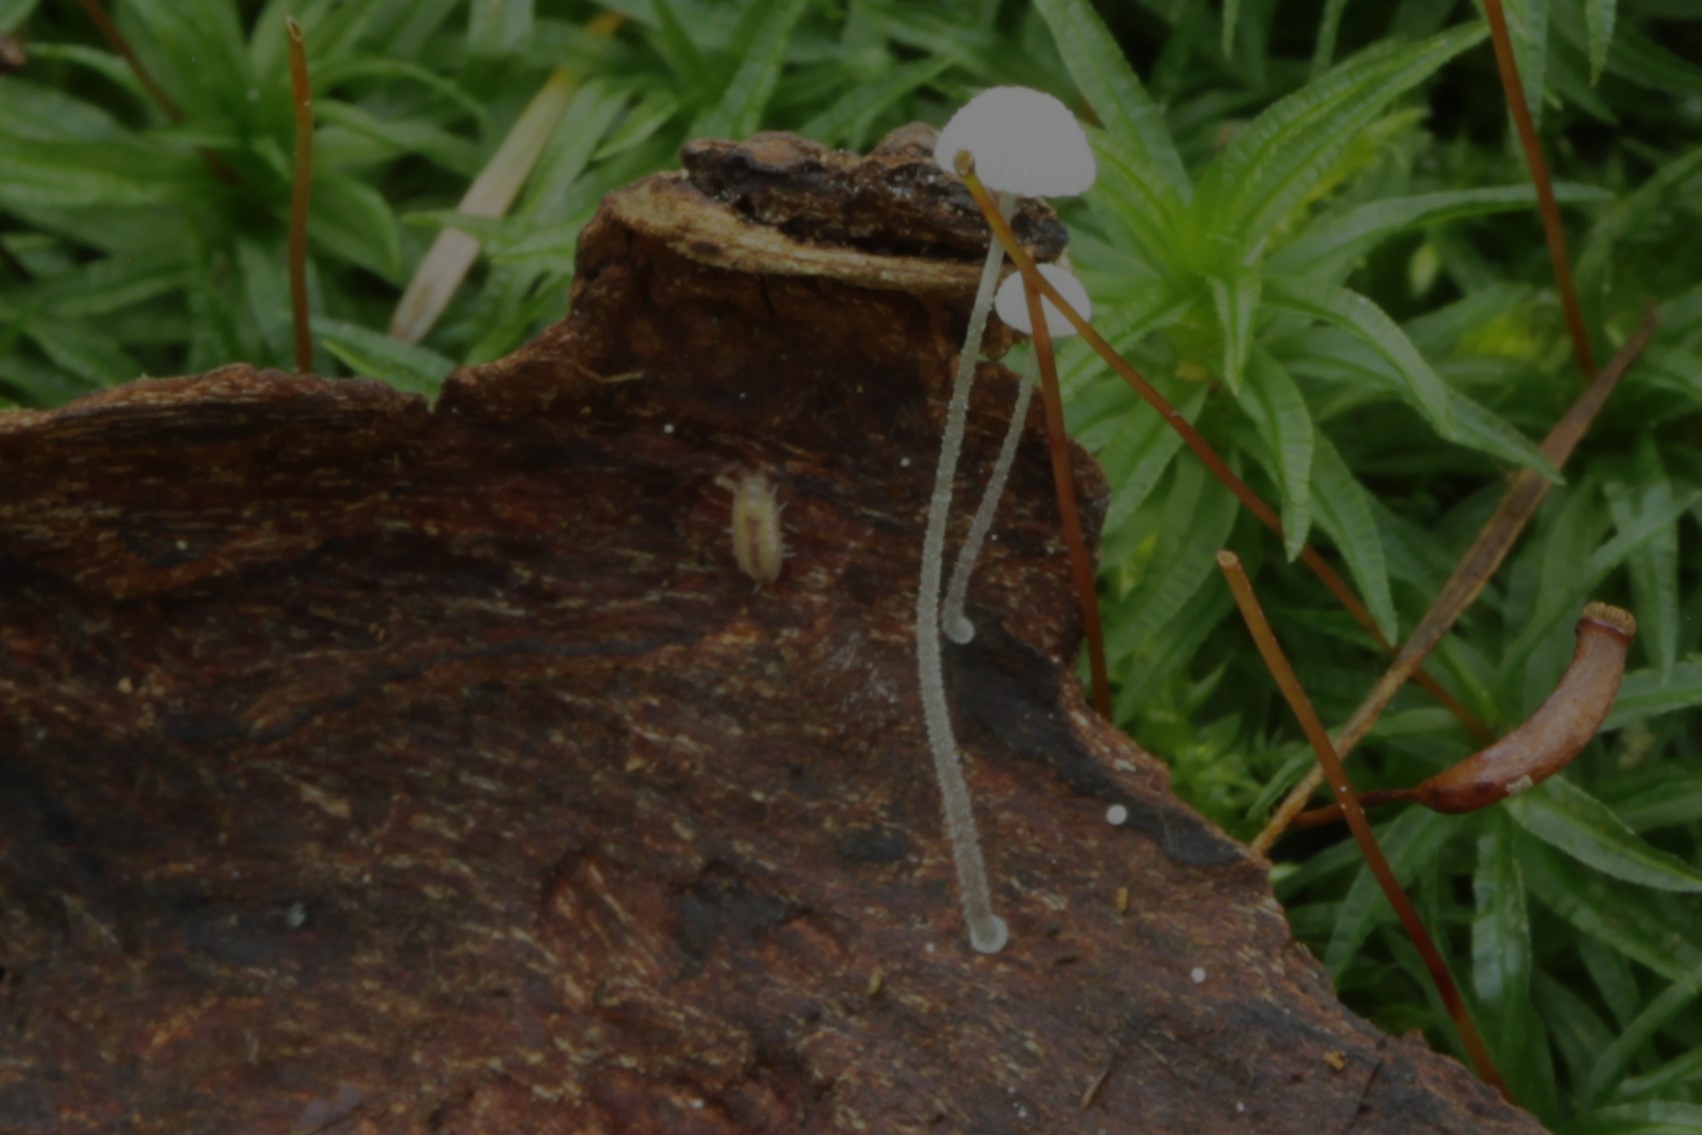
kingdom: Fungi
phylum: Basidiomycota
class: Agaricomycetes
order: Agaricales
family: Mycenaceae
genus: Mycena
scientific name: Mycena tenerrima
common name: pudret huesvamp
